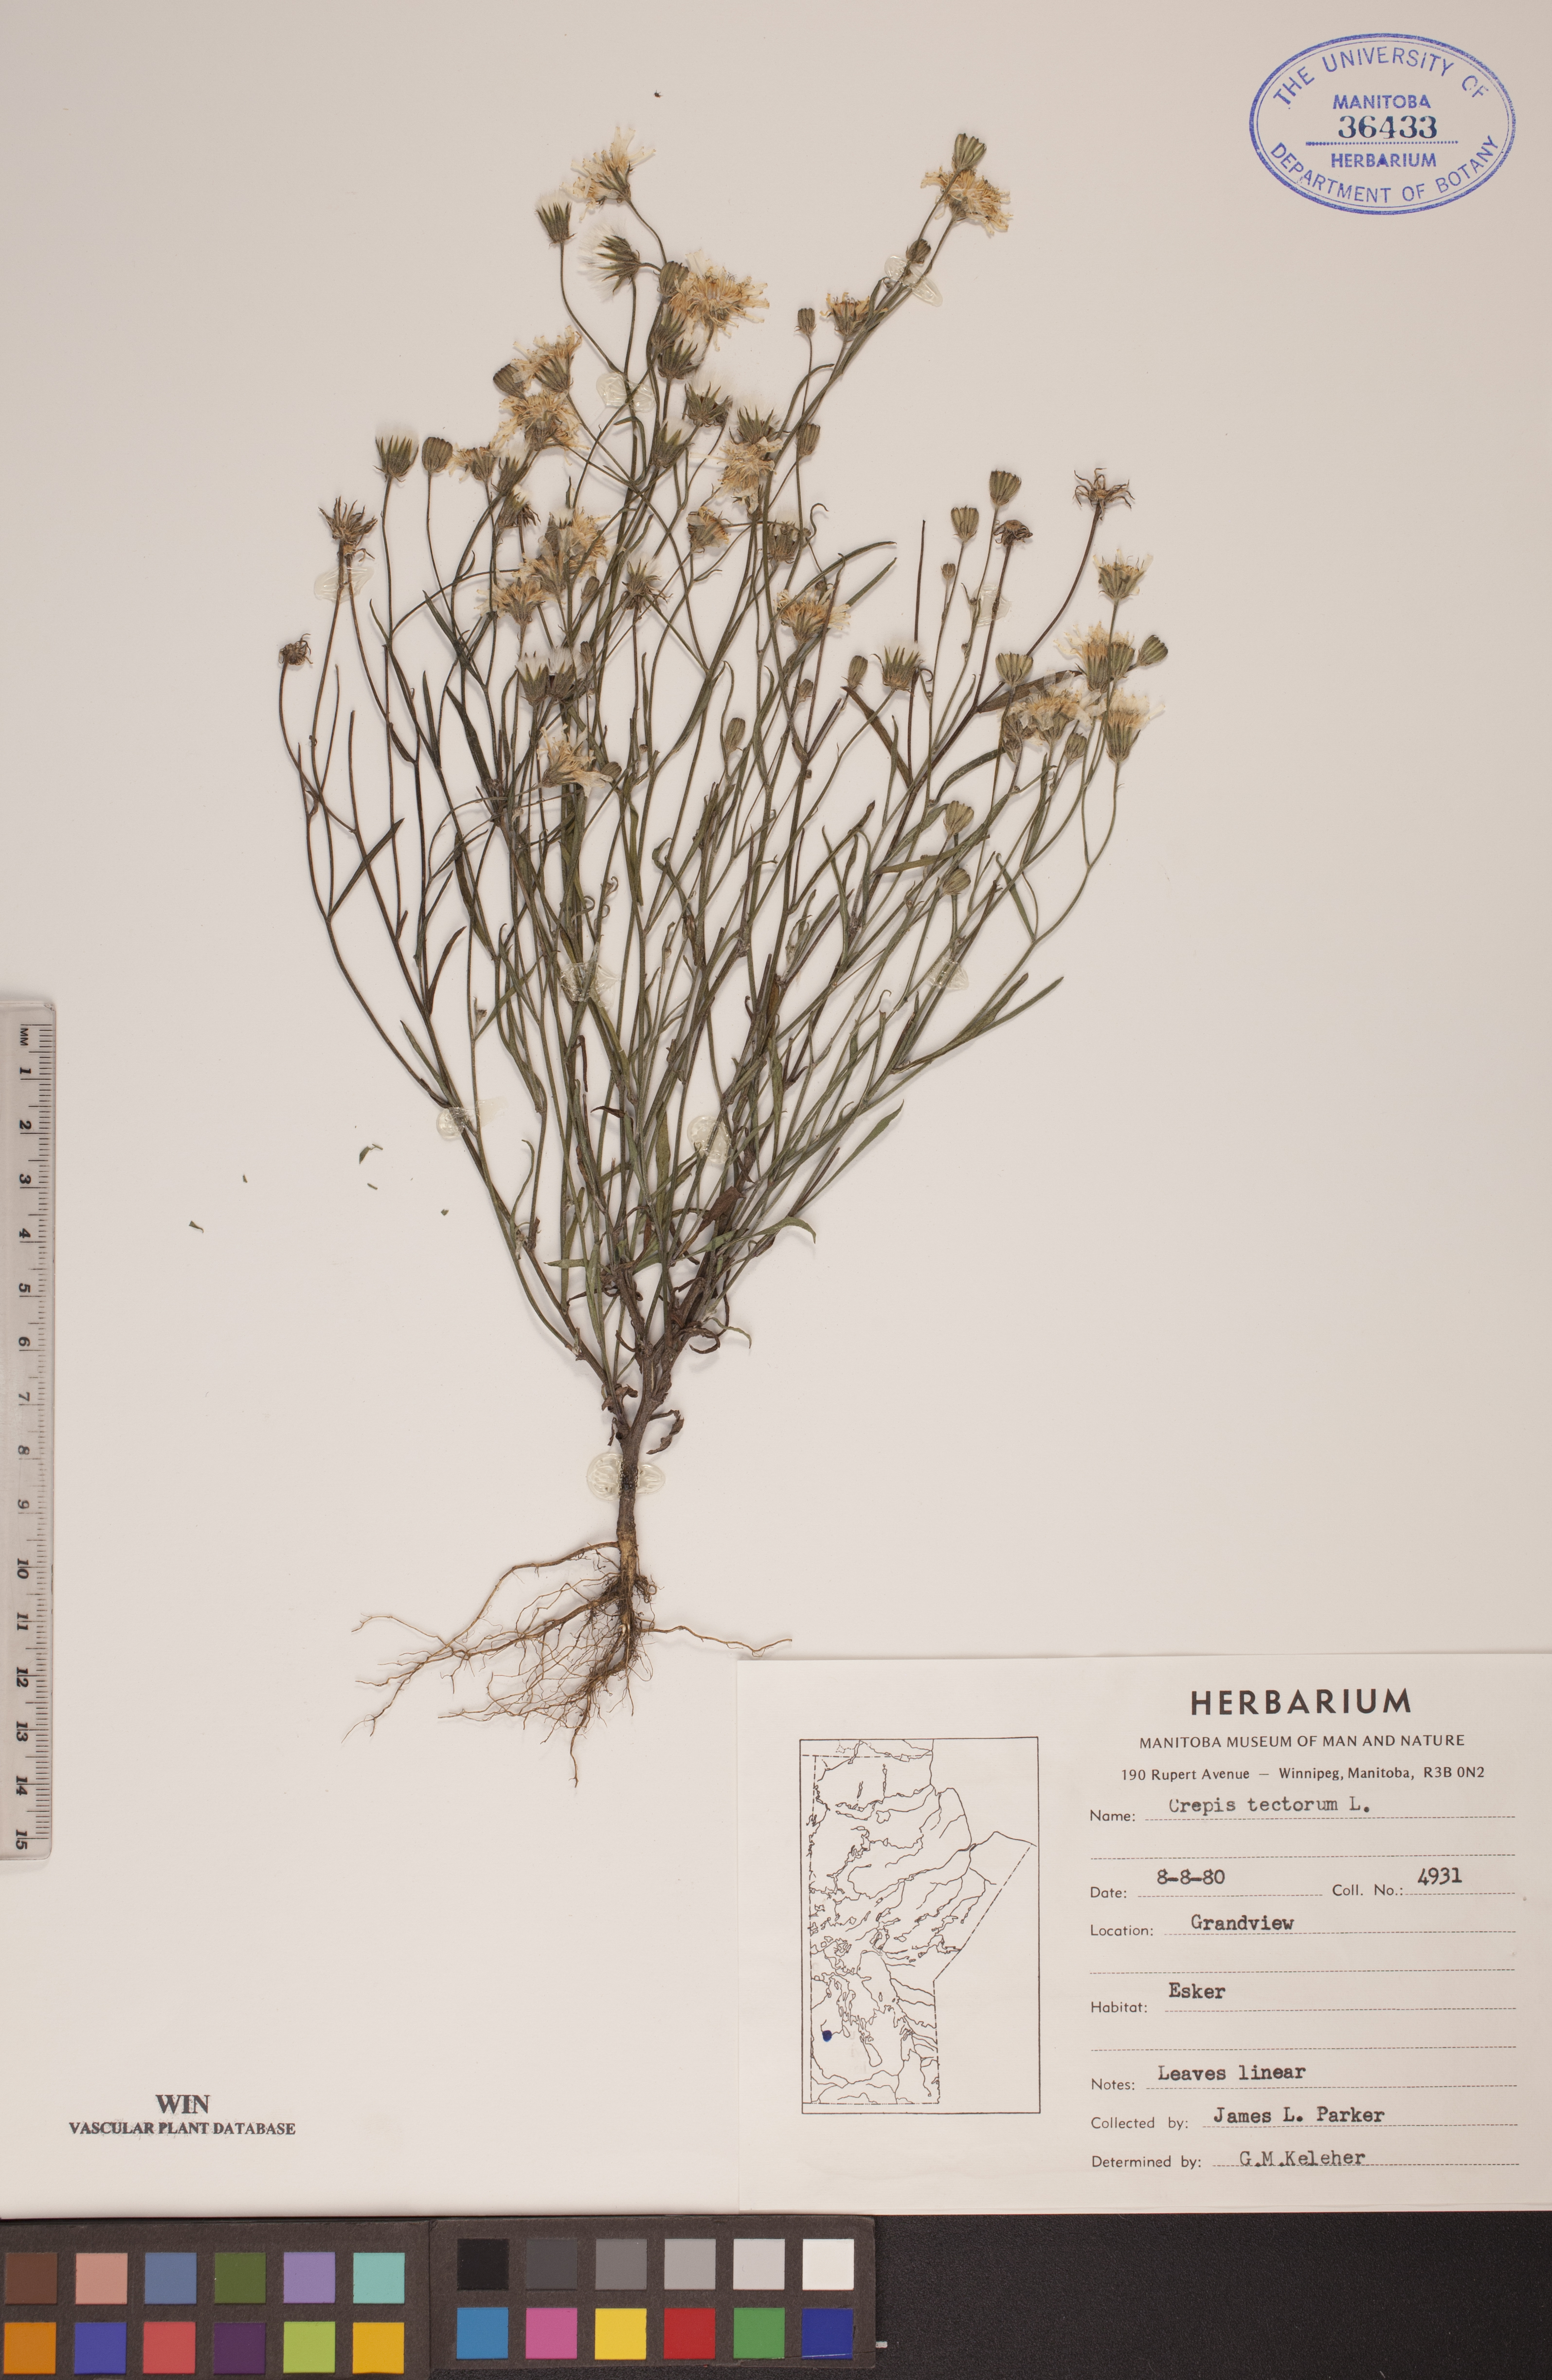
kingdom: Plantae
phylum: Tracheophyta
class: Magnoliopsida
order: Asterales
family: Asteraceae
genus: Crepis
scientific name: Crepis tectorum
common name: Narrow-leaved hawk's-beard
